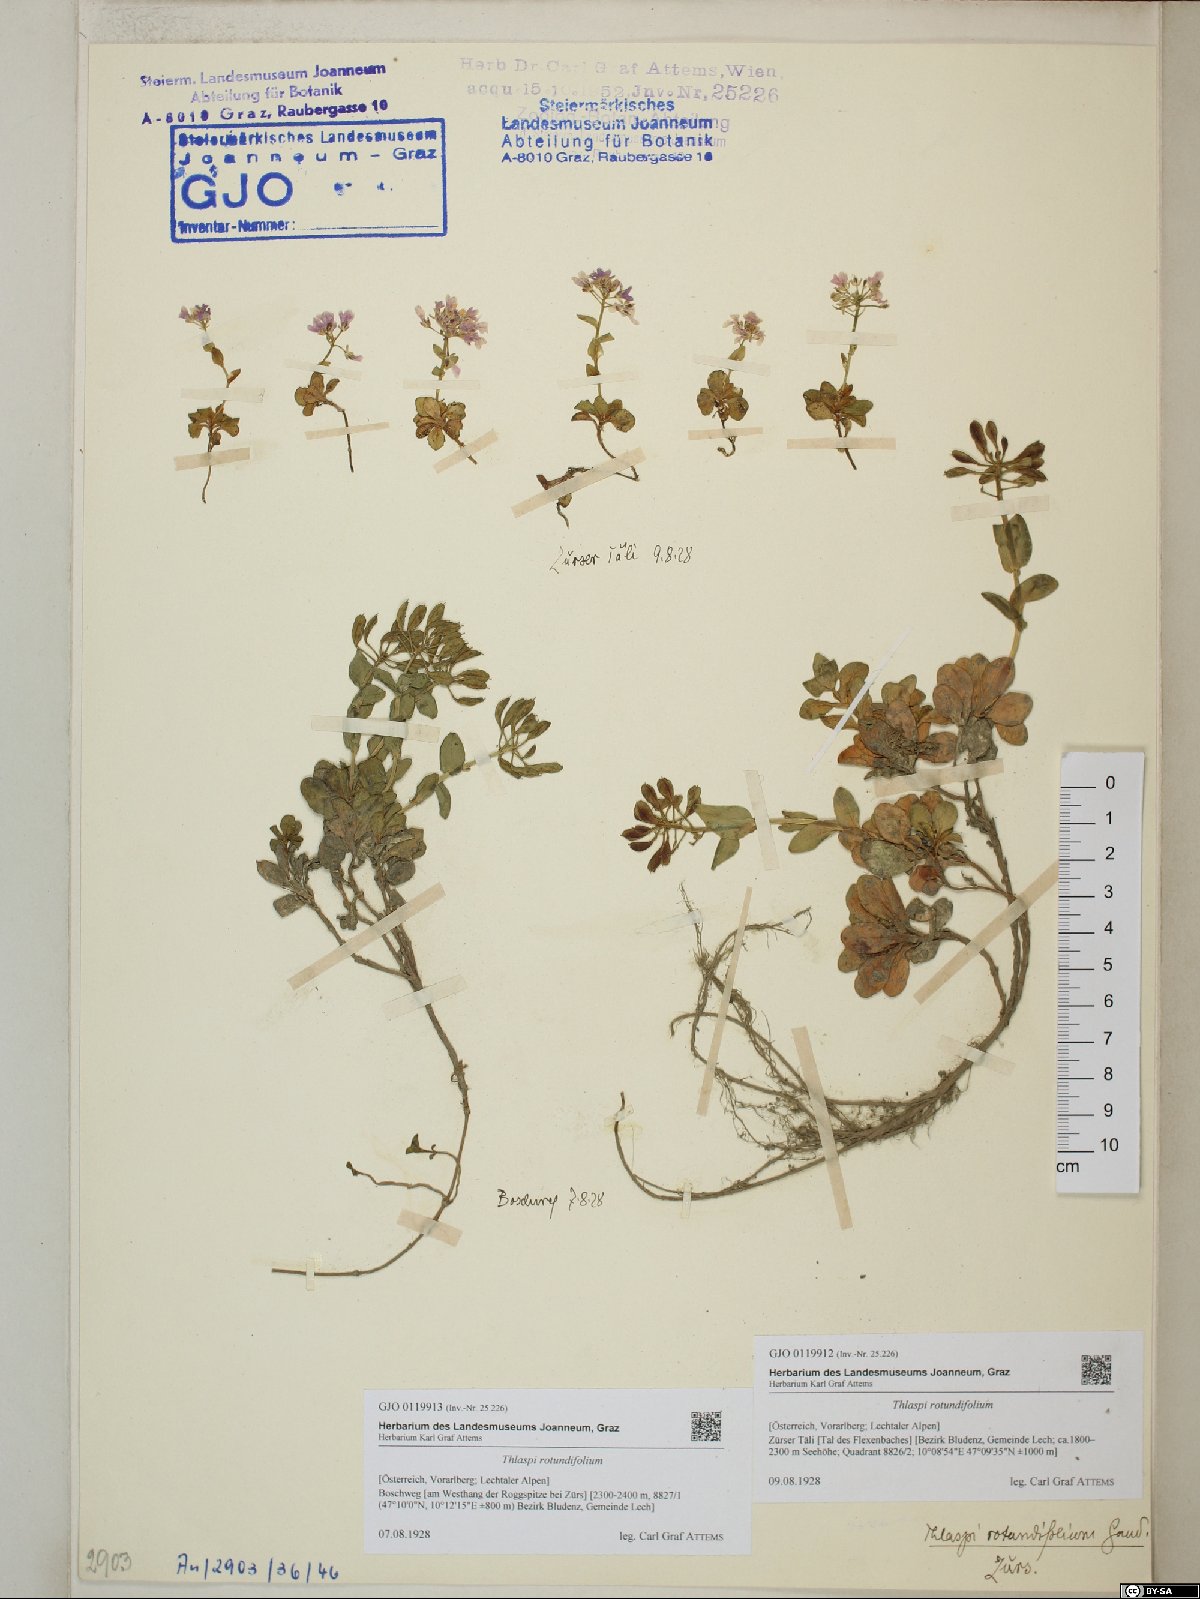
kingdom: Plantae
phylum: Tracheophyta
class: Magnoliopsida
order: Brassicales
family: Brassicaceae
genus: Noccaea
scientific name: Noccaea rotundifolia
